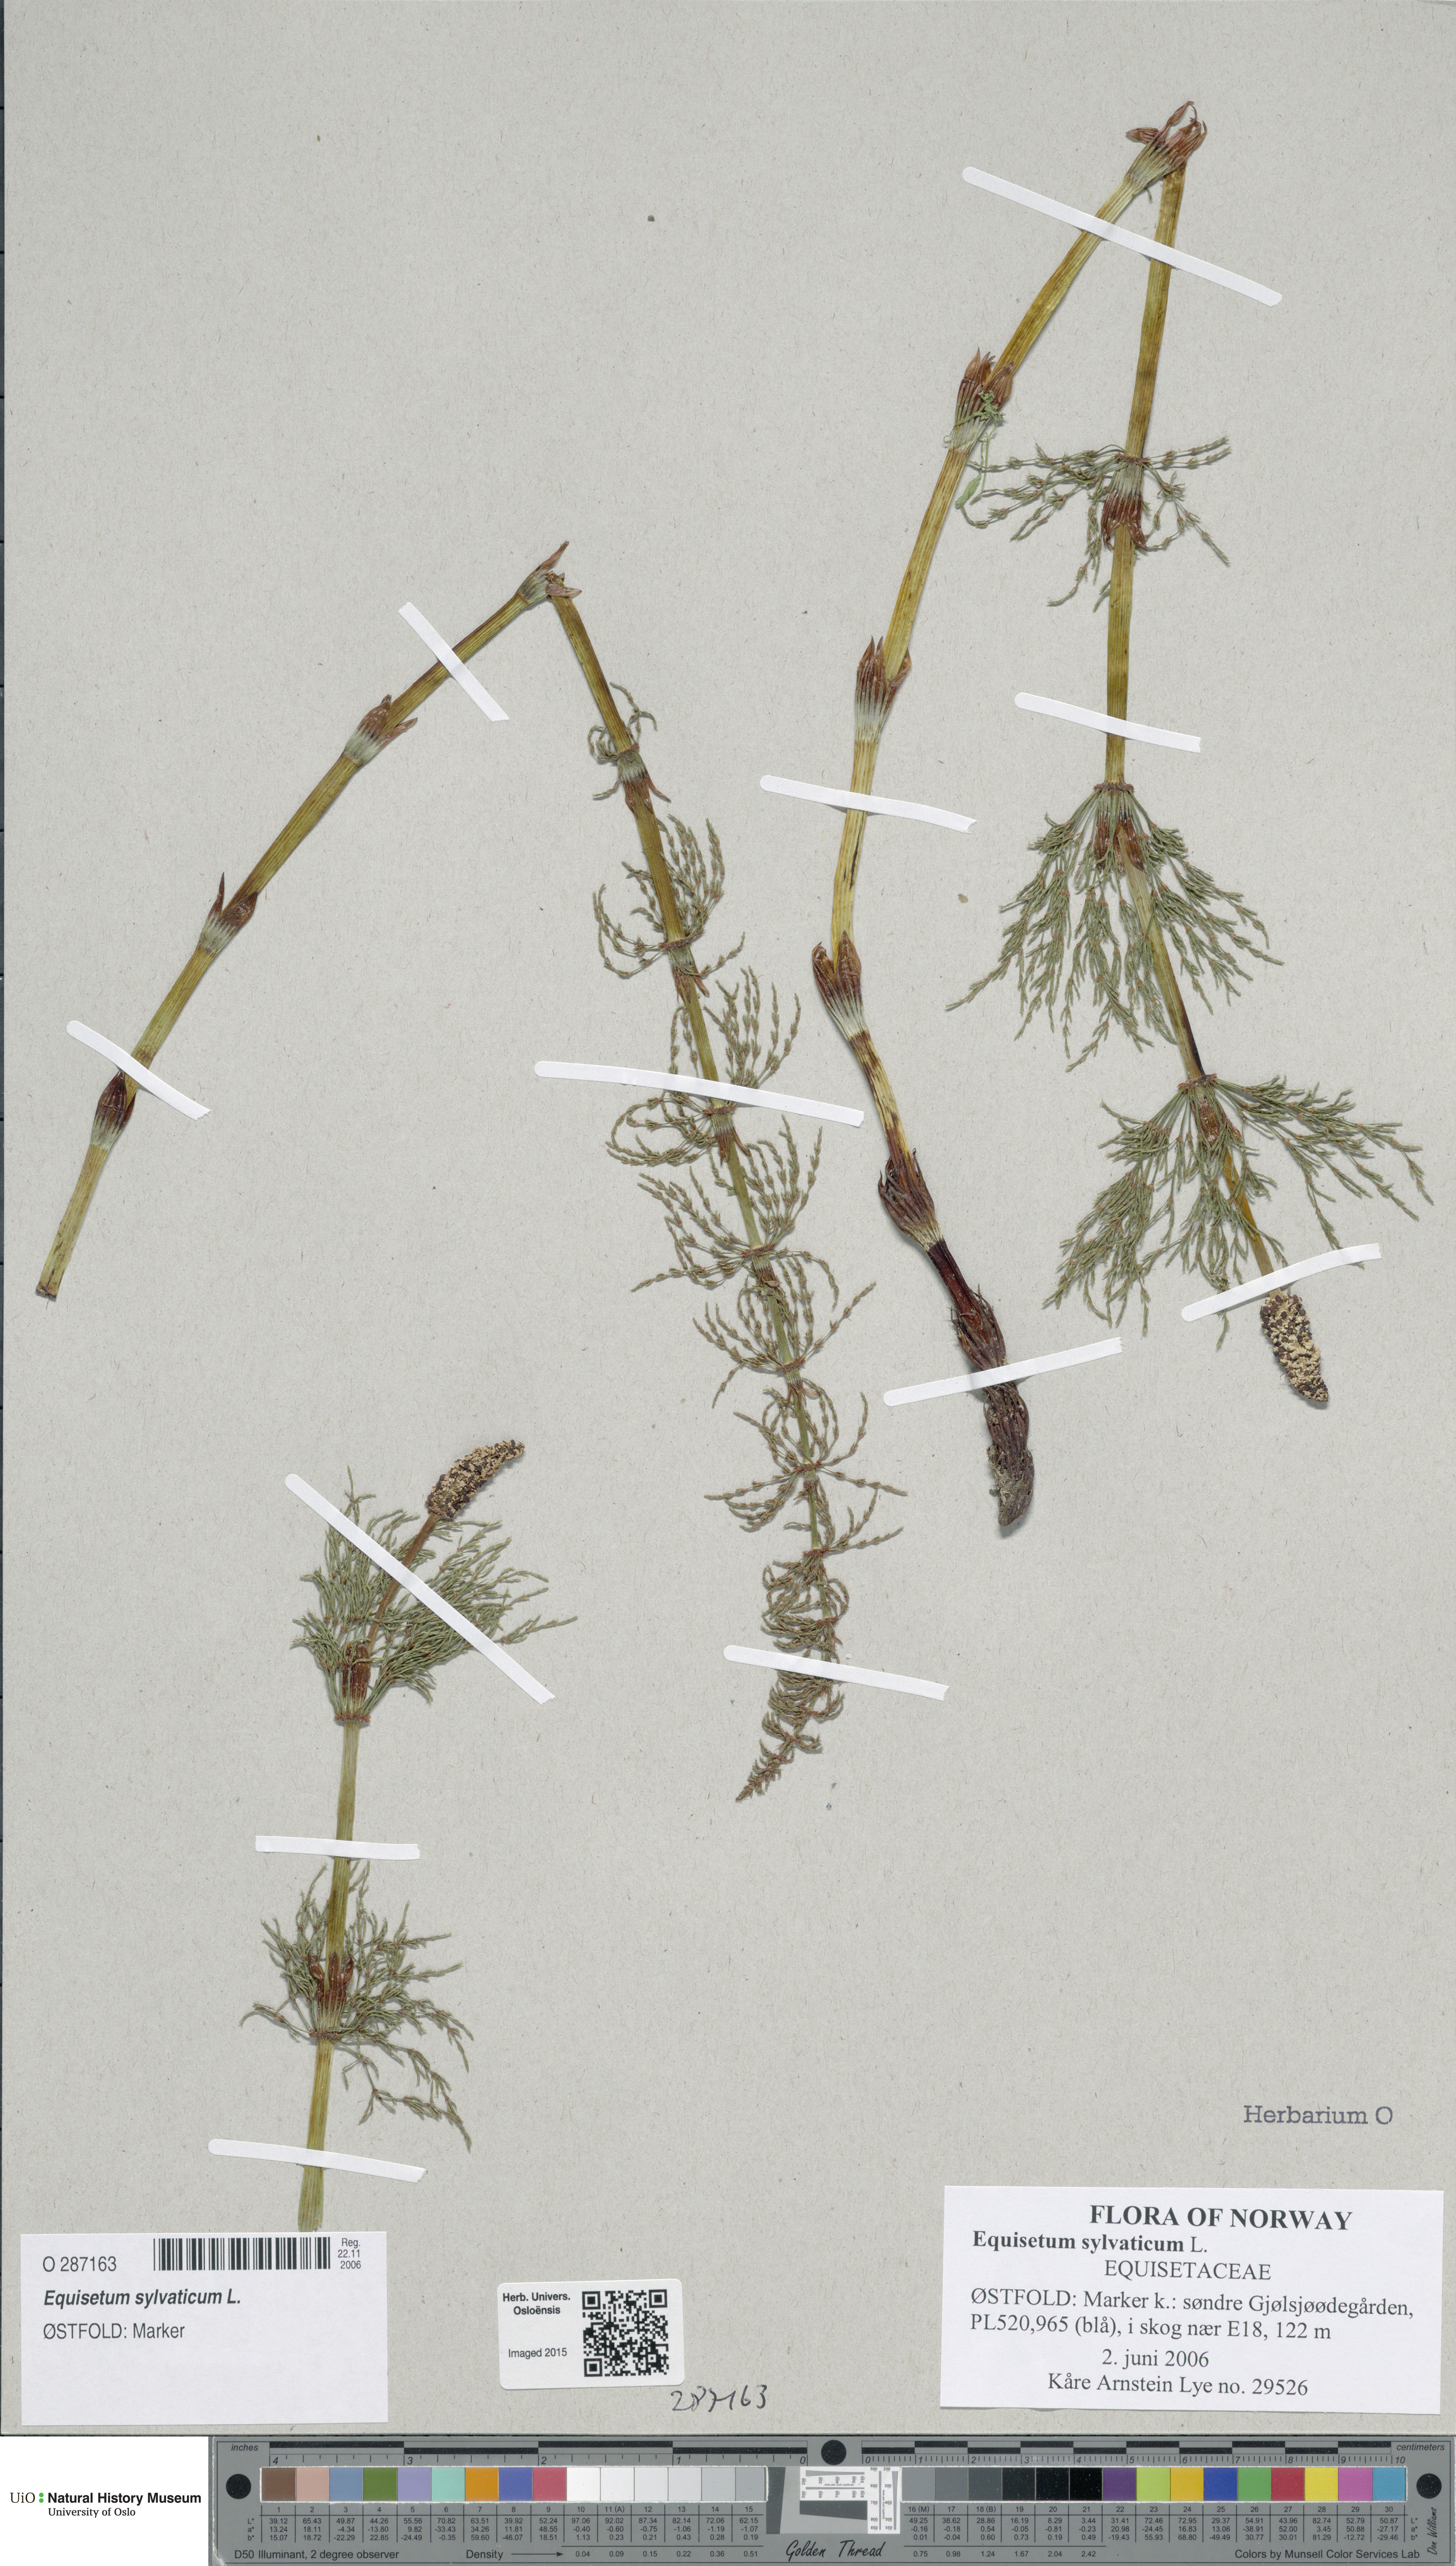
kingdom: Plantae
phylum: Tracheophyta
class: Polypodiopsida
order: Equisetales
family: Equisetaceae
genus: Equisetum
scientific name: Equisetum sylvaticum
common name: Wood horsetail
